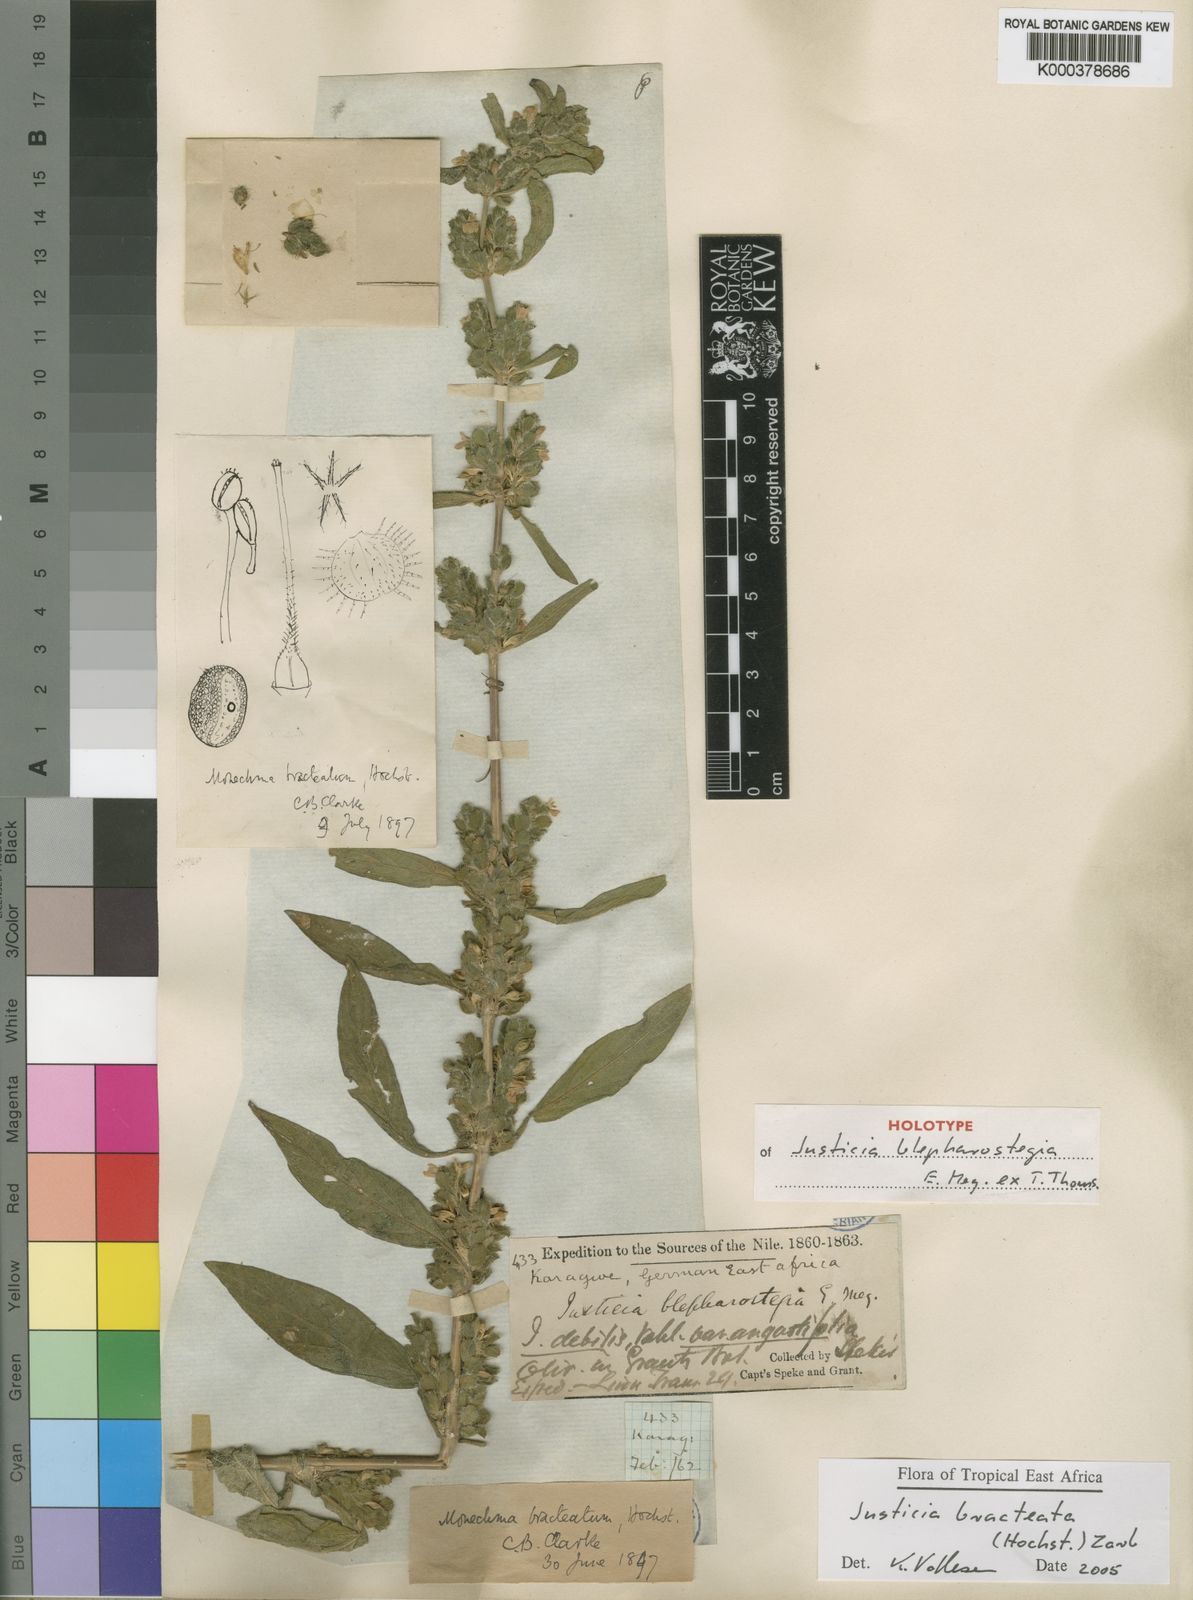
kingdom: Plantae
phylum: Tracheophyta
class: Magnoliopsida
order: Lamiales
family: Acanthaceae
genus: Monechma
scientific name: Monechma bracteatum
